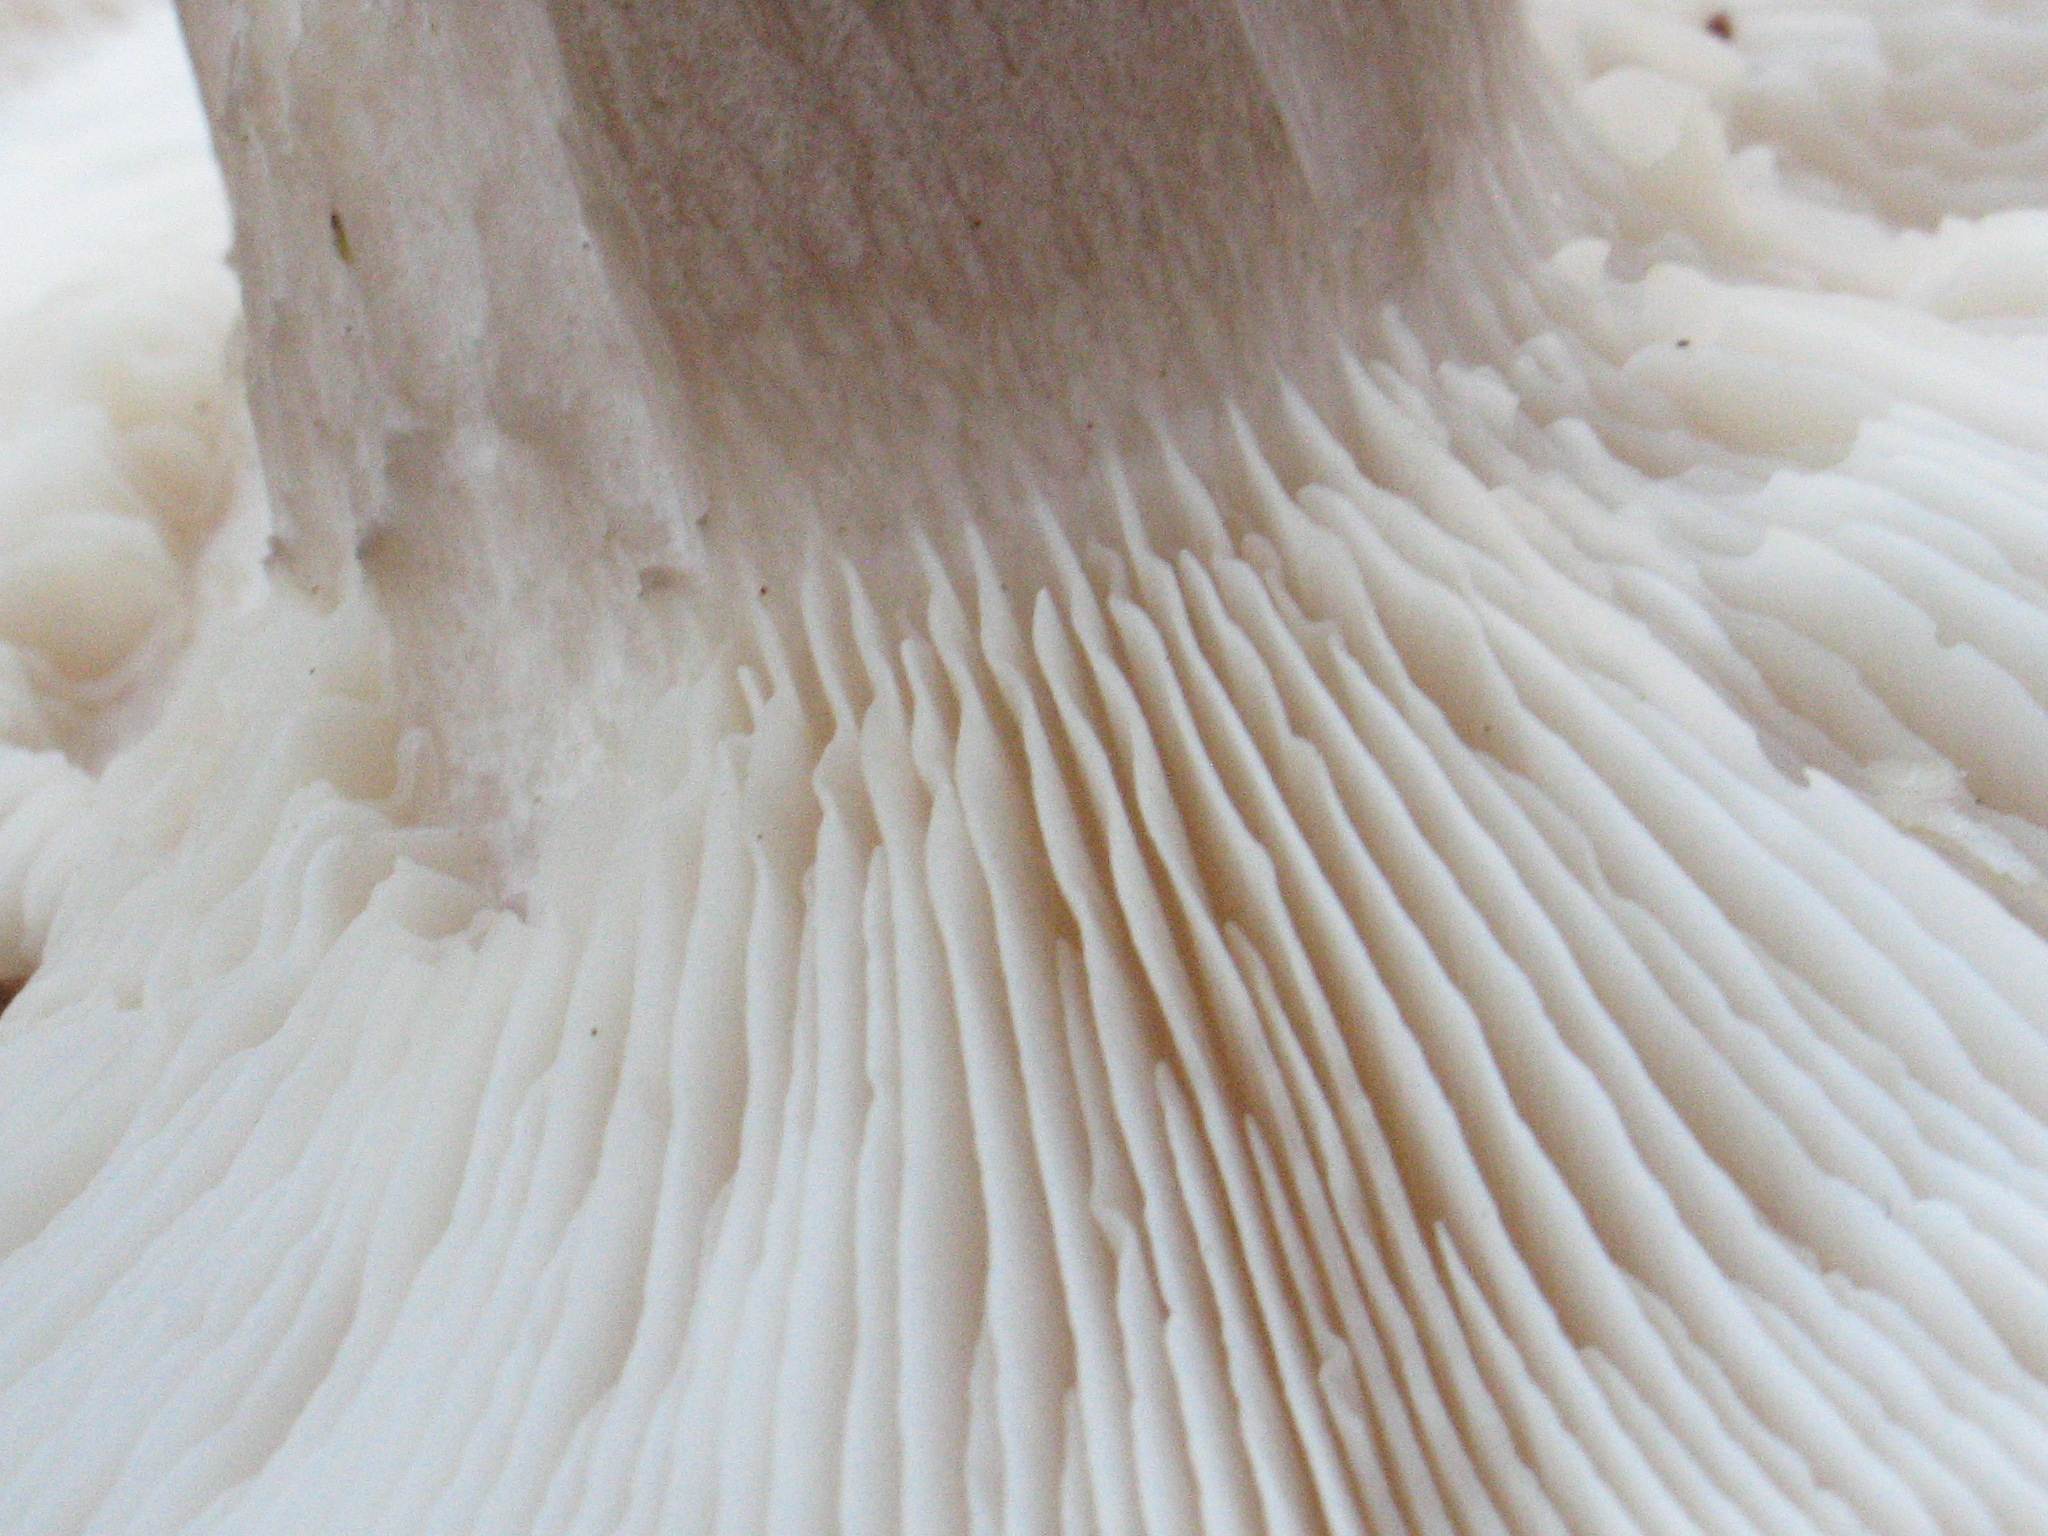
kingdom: Fungi
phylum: Basidiomycota
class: Agaricomycetes
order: Agaricales
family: Tricholomataceae
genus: Clitocybe
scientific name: Clitocybe nebularis
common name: tåge-tragthat
